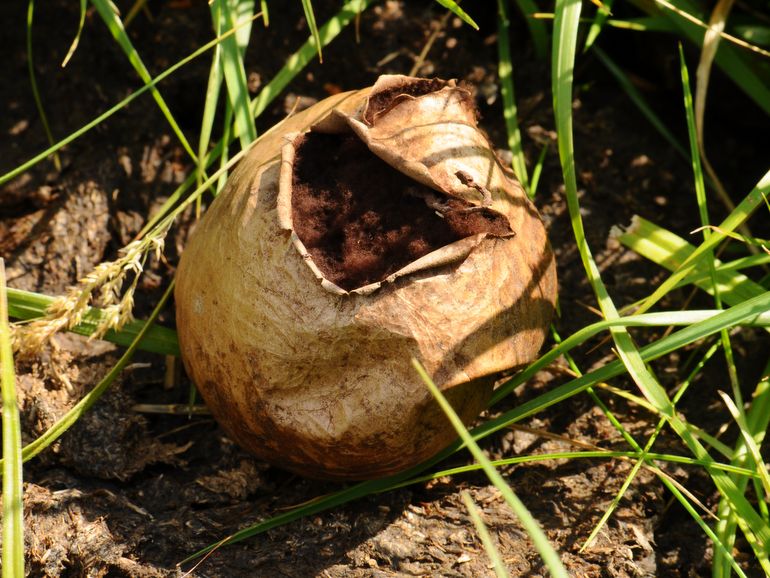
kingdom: Fungi
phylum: Basidiomycota
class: Agaricomycetes
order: Agaricales
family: Lycoperdaceae
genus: Bovista
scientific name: Bovista nigrescens
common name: sortagtig bovist
